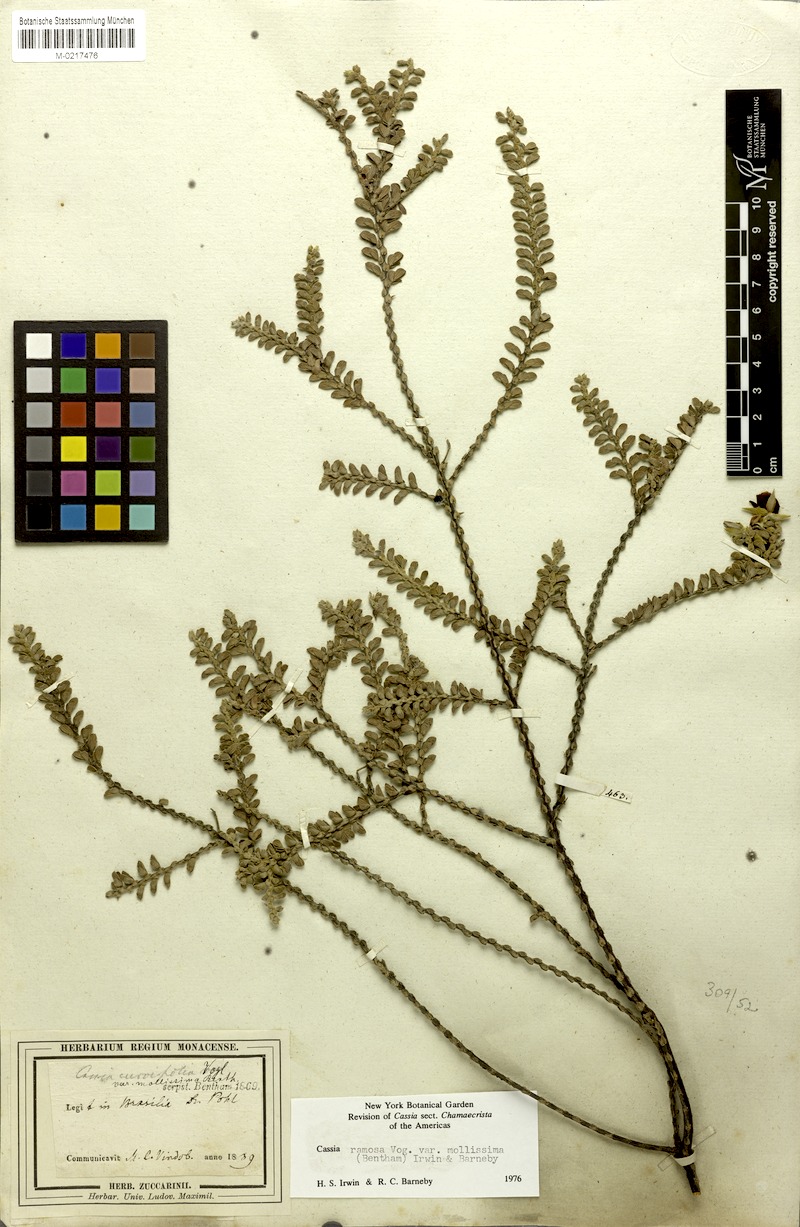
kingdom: Plantae
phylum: Tracheophyta
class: Magnoliopsida
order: Fabales
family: Fabaceae
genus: Chamaecrista
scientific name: Chamaecrista ramosa
